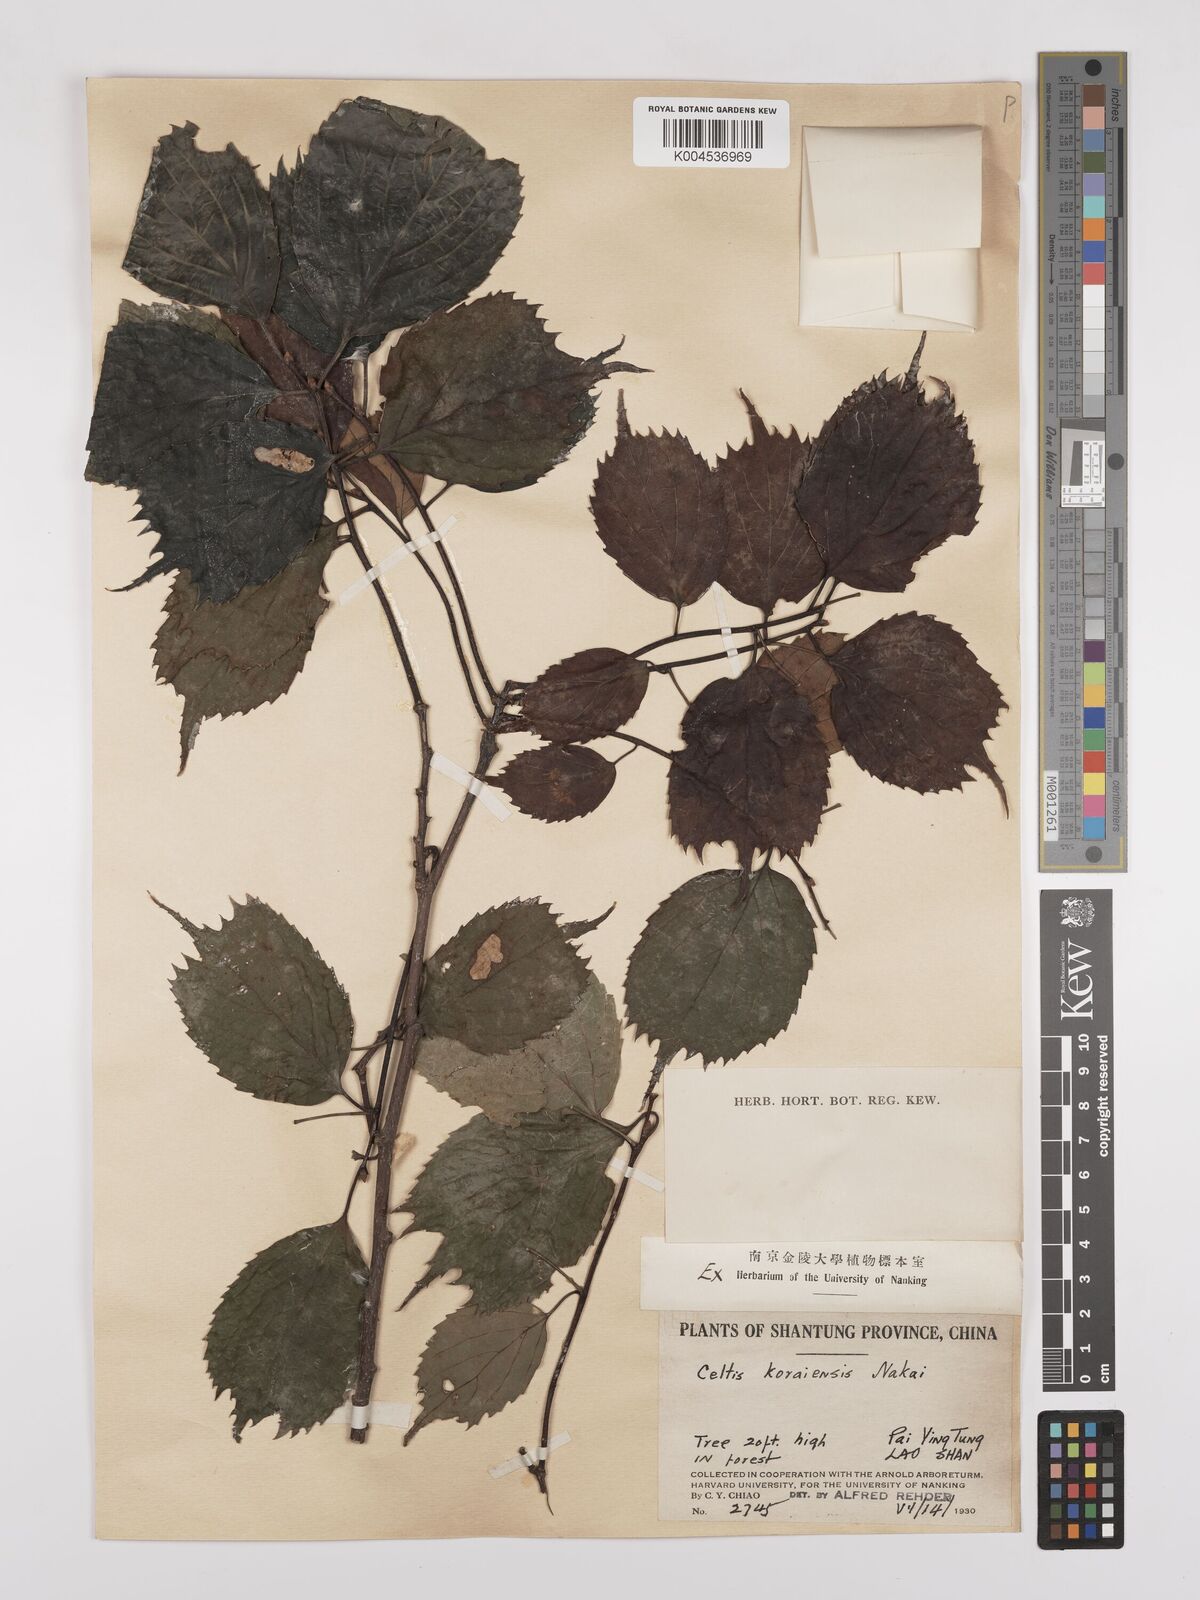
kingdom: Plantae
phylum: Tracheophyta
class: Magnoliopsida
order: Rosales
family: Cannabaceae
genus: Celtis
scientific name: Celtis koraiensis
